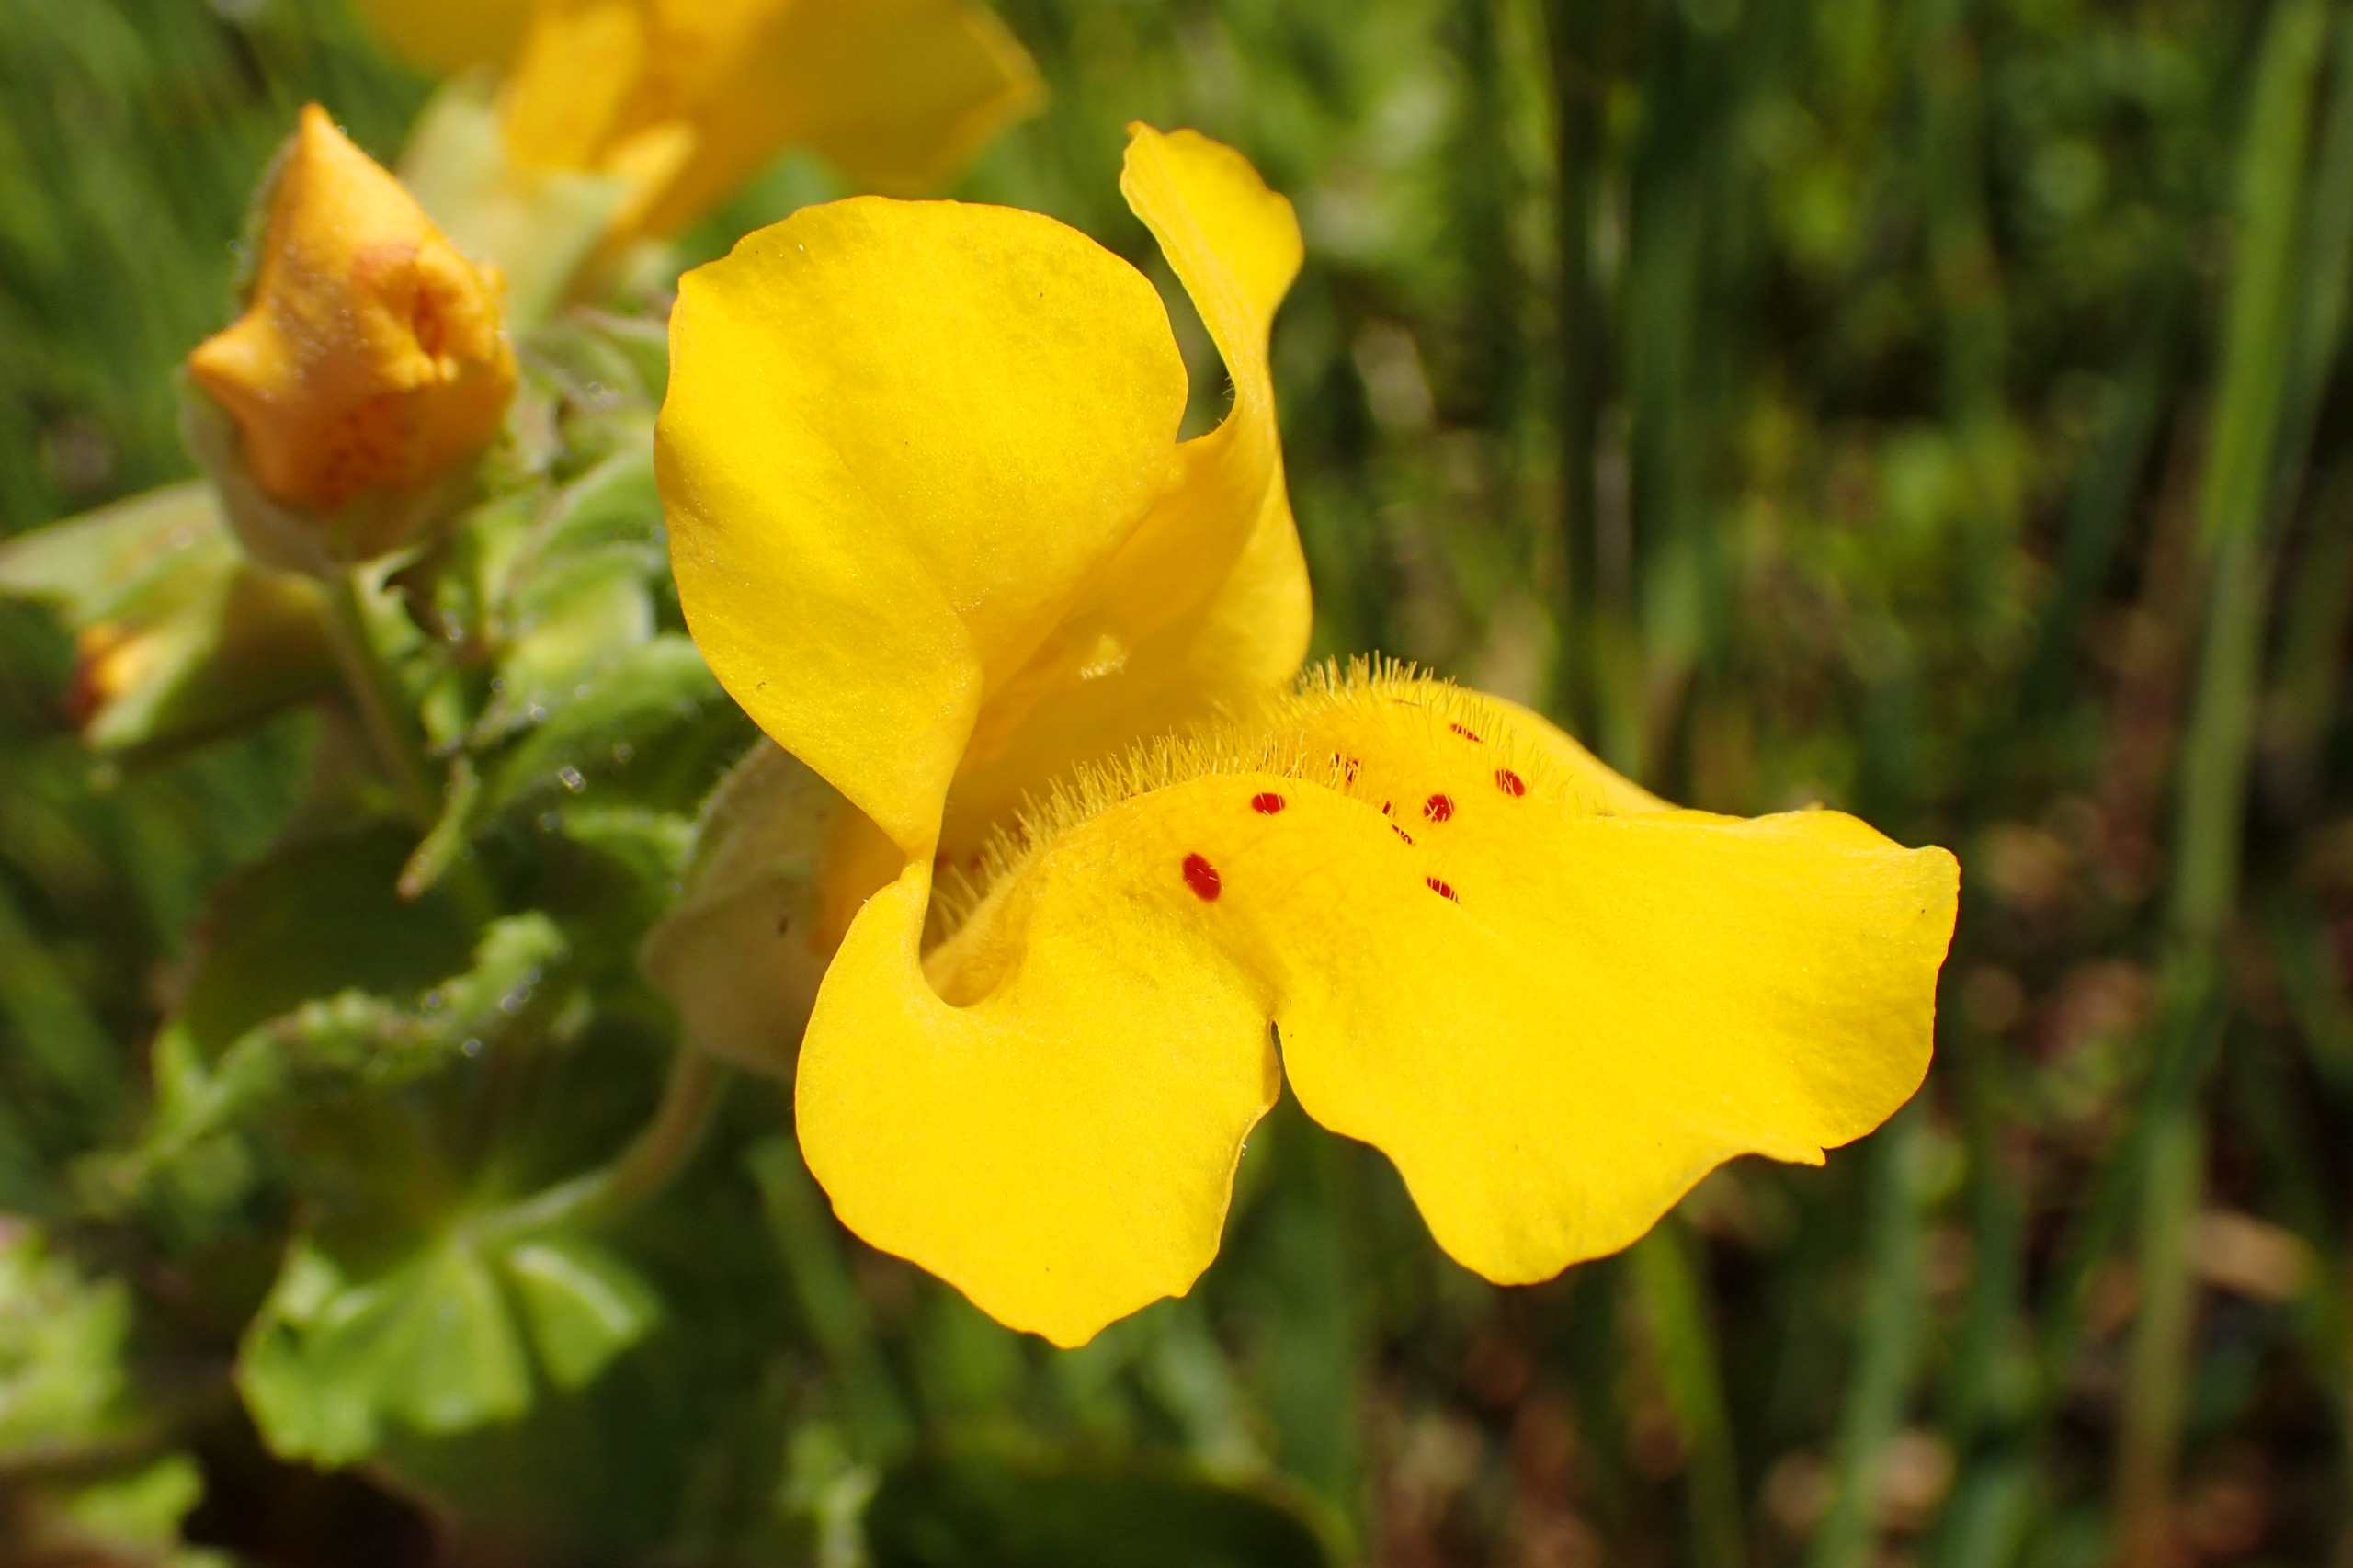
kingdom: Plantae
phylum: Tracheophyta
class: Magnoliopsida
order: Lamiales
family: Phrymaceae
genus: Erythranthe
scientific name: Erythranthe guttata
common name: Abeblomst
